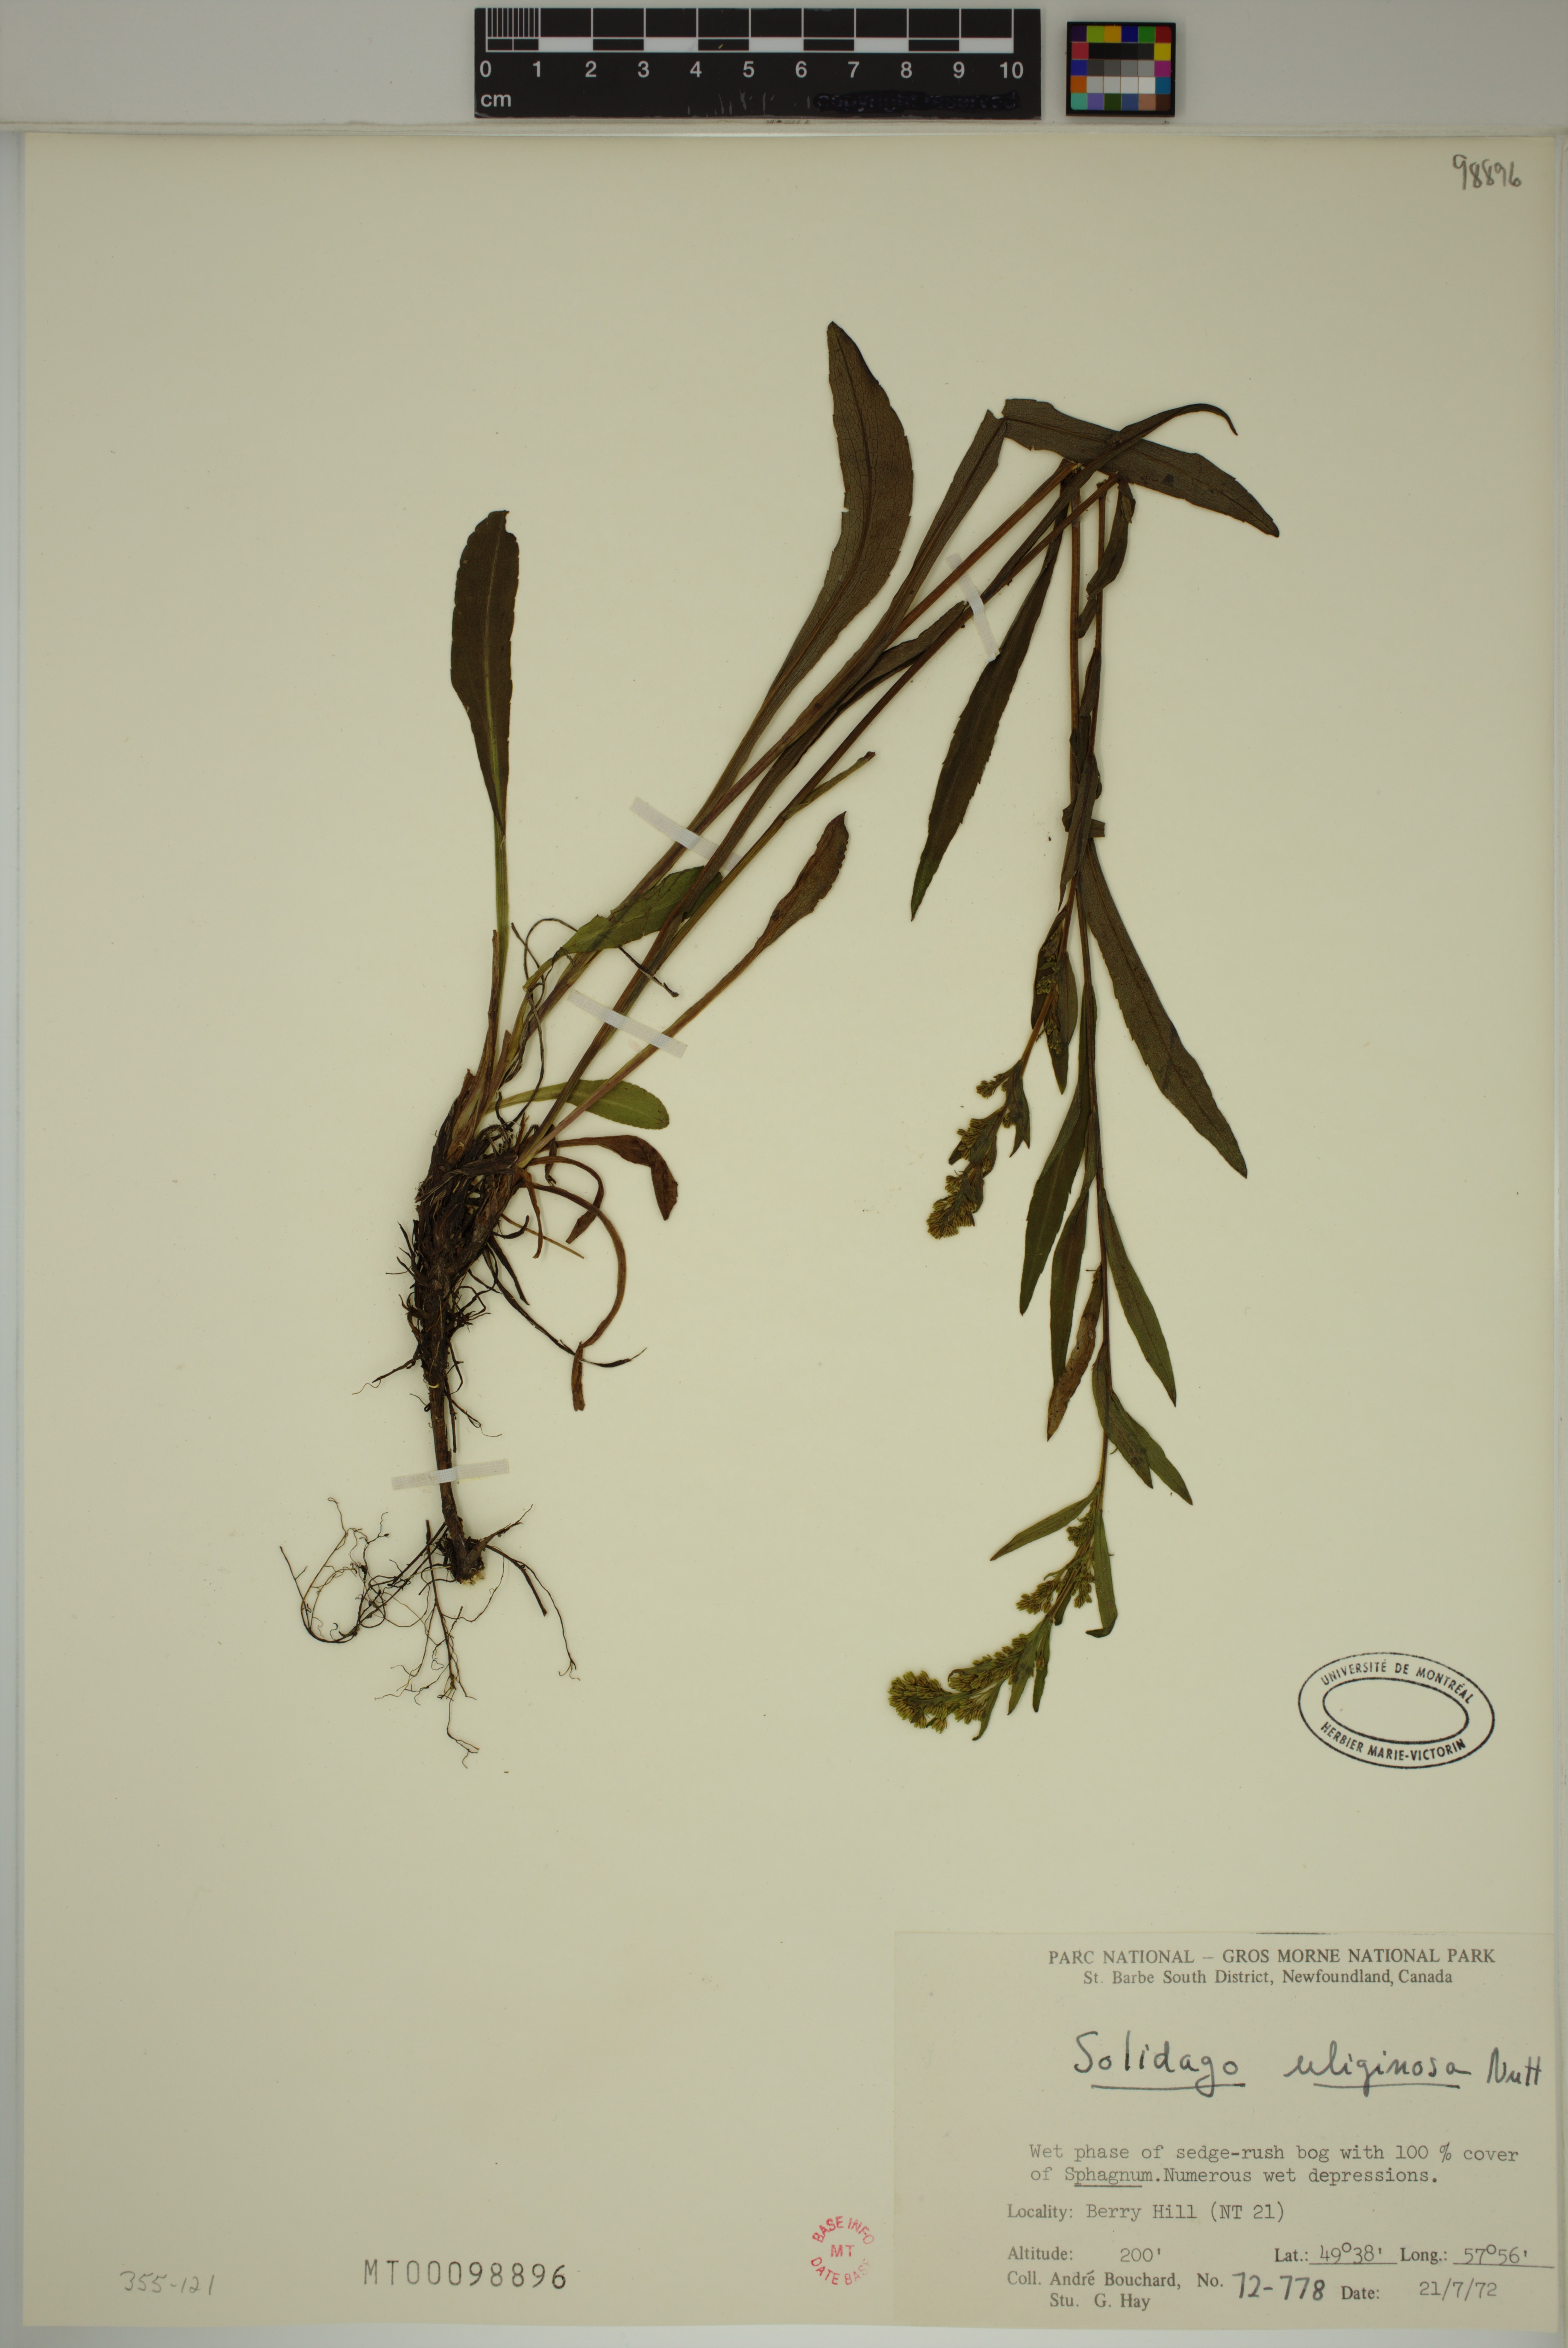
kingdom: Plantae
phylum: Tracheophyta
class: Magnoliopsida
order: Asterales
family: Asteraceae
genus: Solidago
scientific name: Solidago uliginosa
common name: Bog goldenrod
